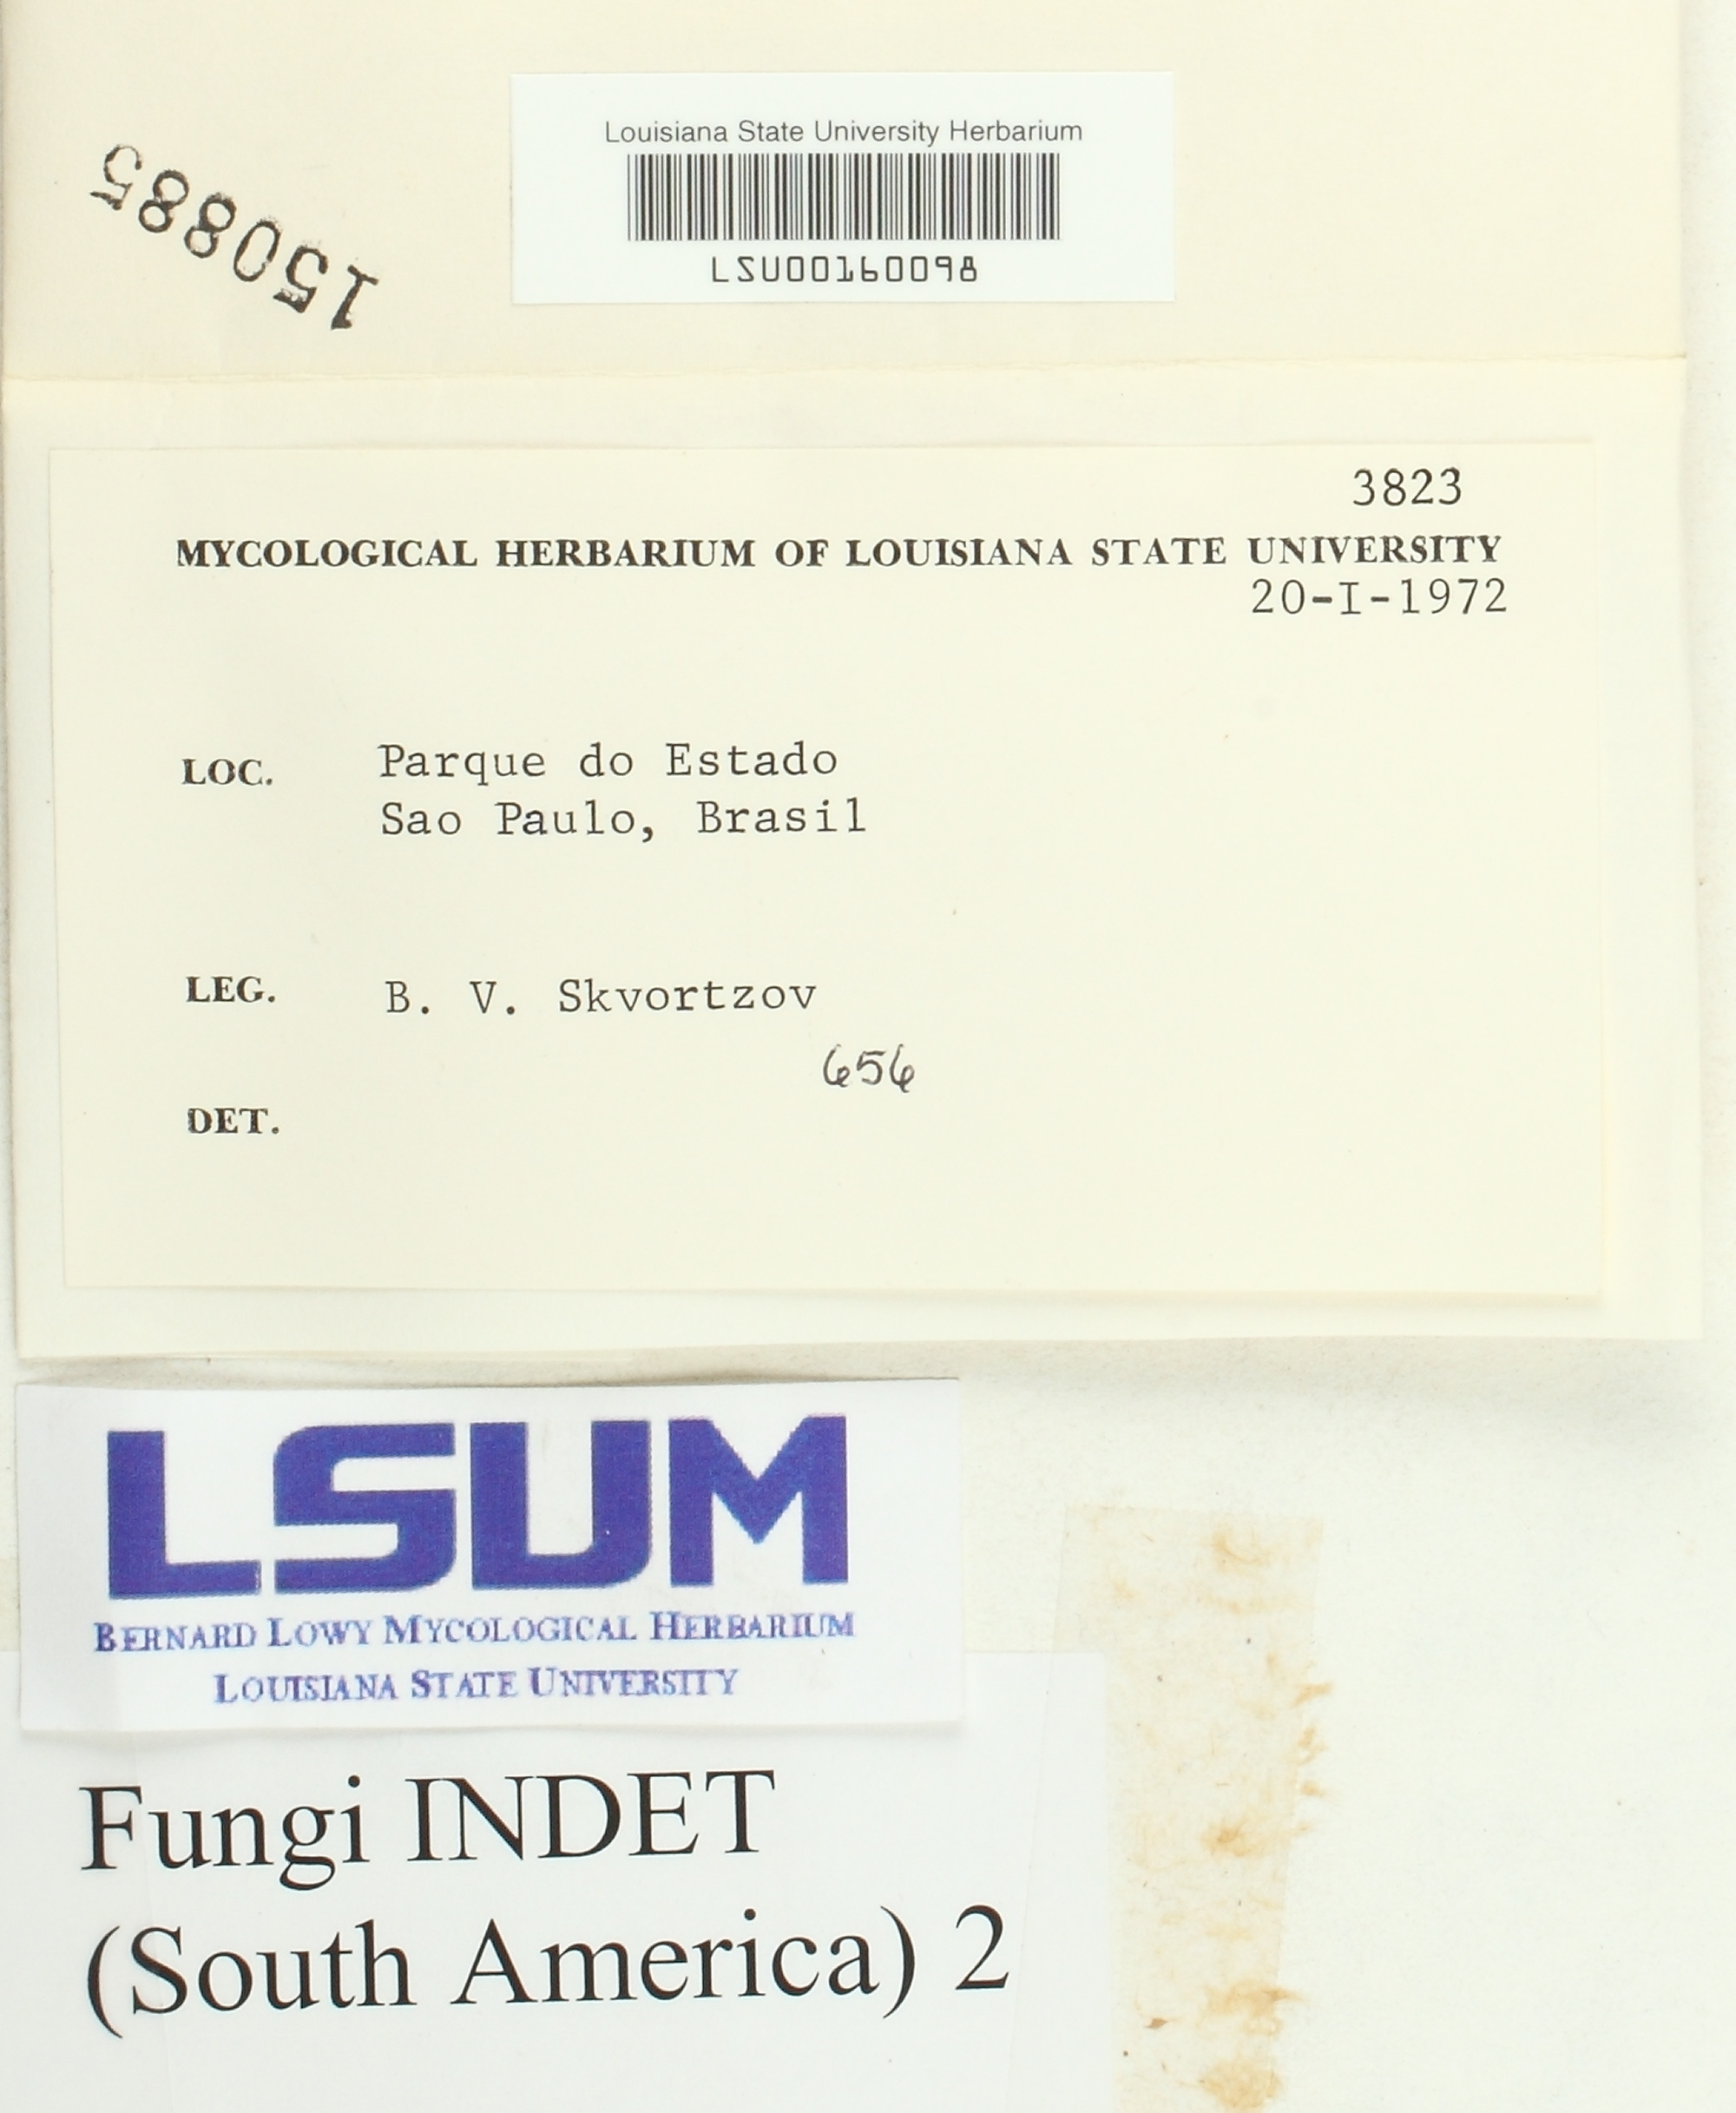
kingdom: Fungi
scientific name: Fungi
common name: Fungi
